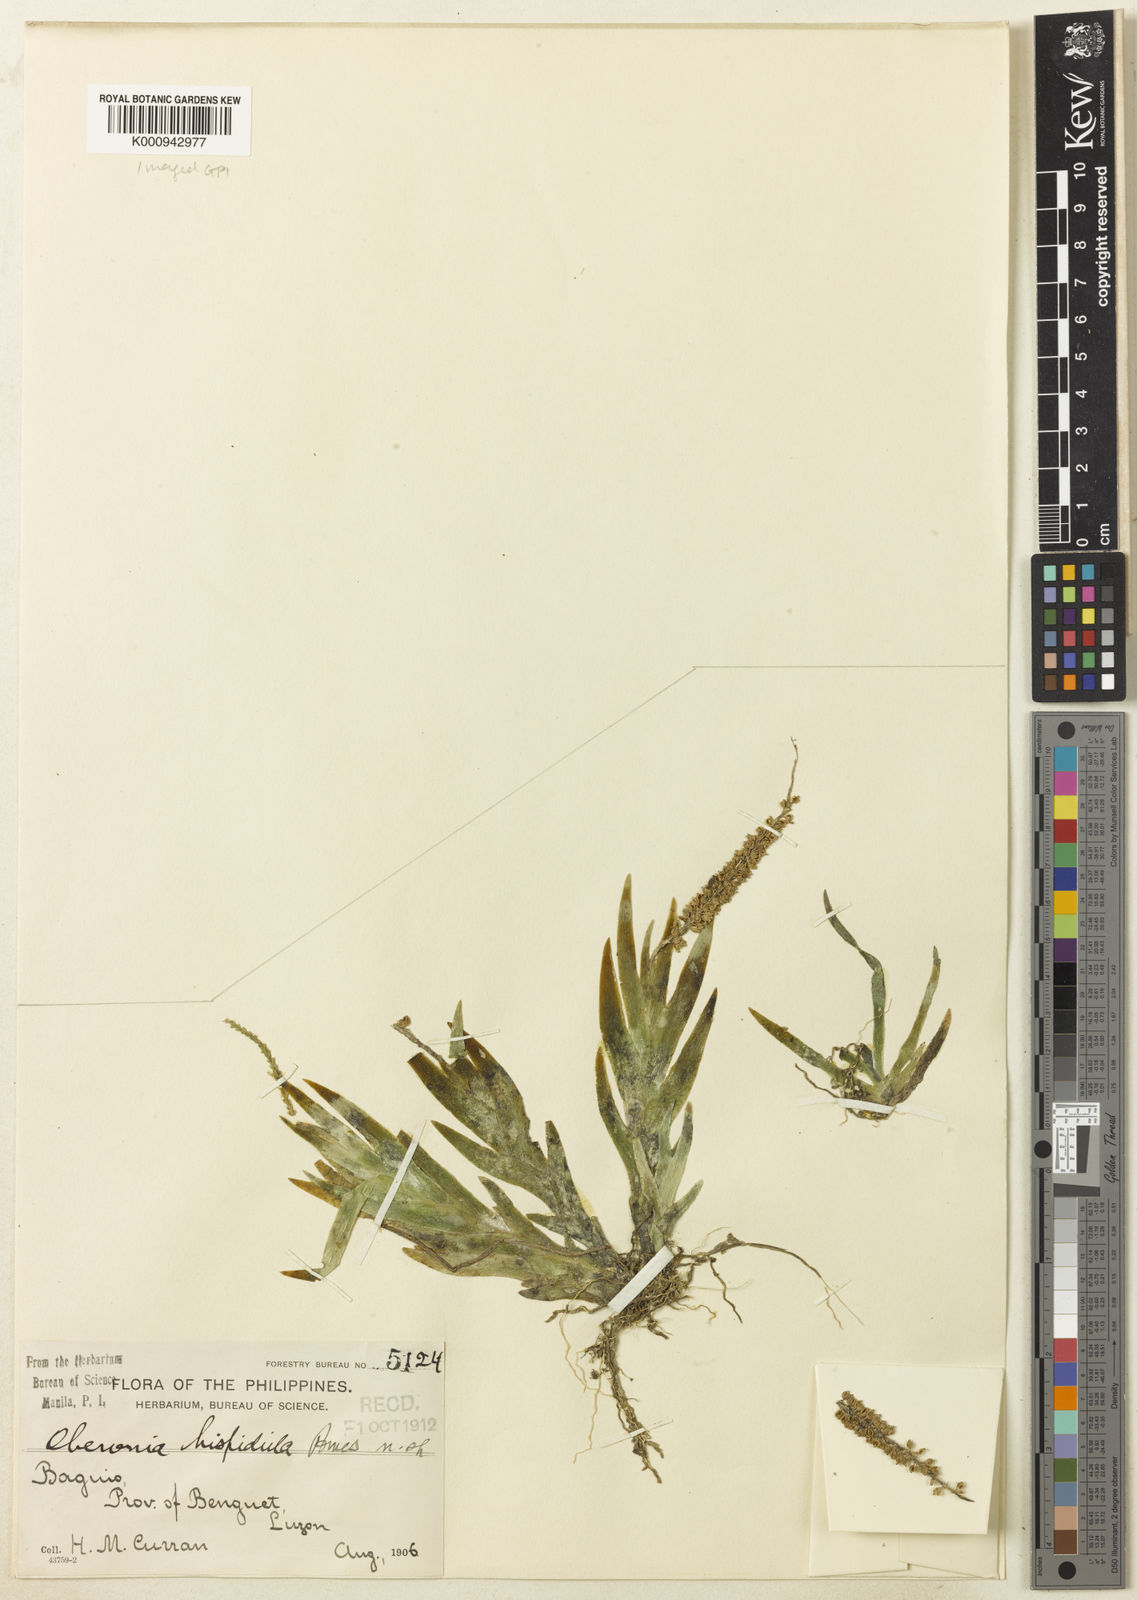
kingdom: Plantae
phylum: Tracheophyta
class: Liliopsida
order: Asparagales
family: Orchidaceae
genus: Oberonia
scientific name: Oberonia hispidula
